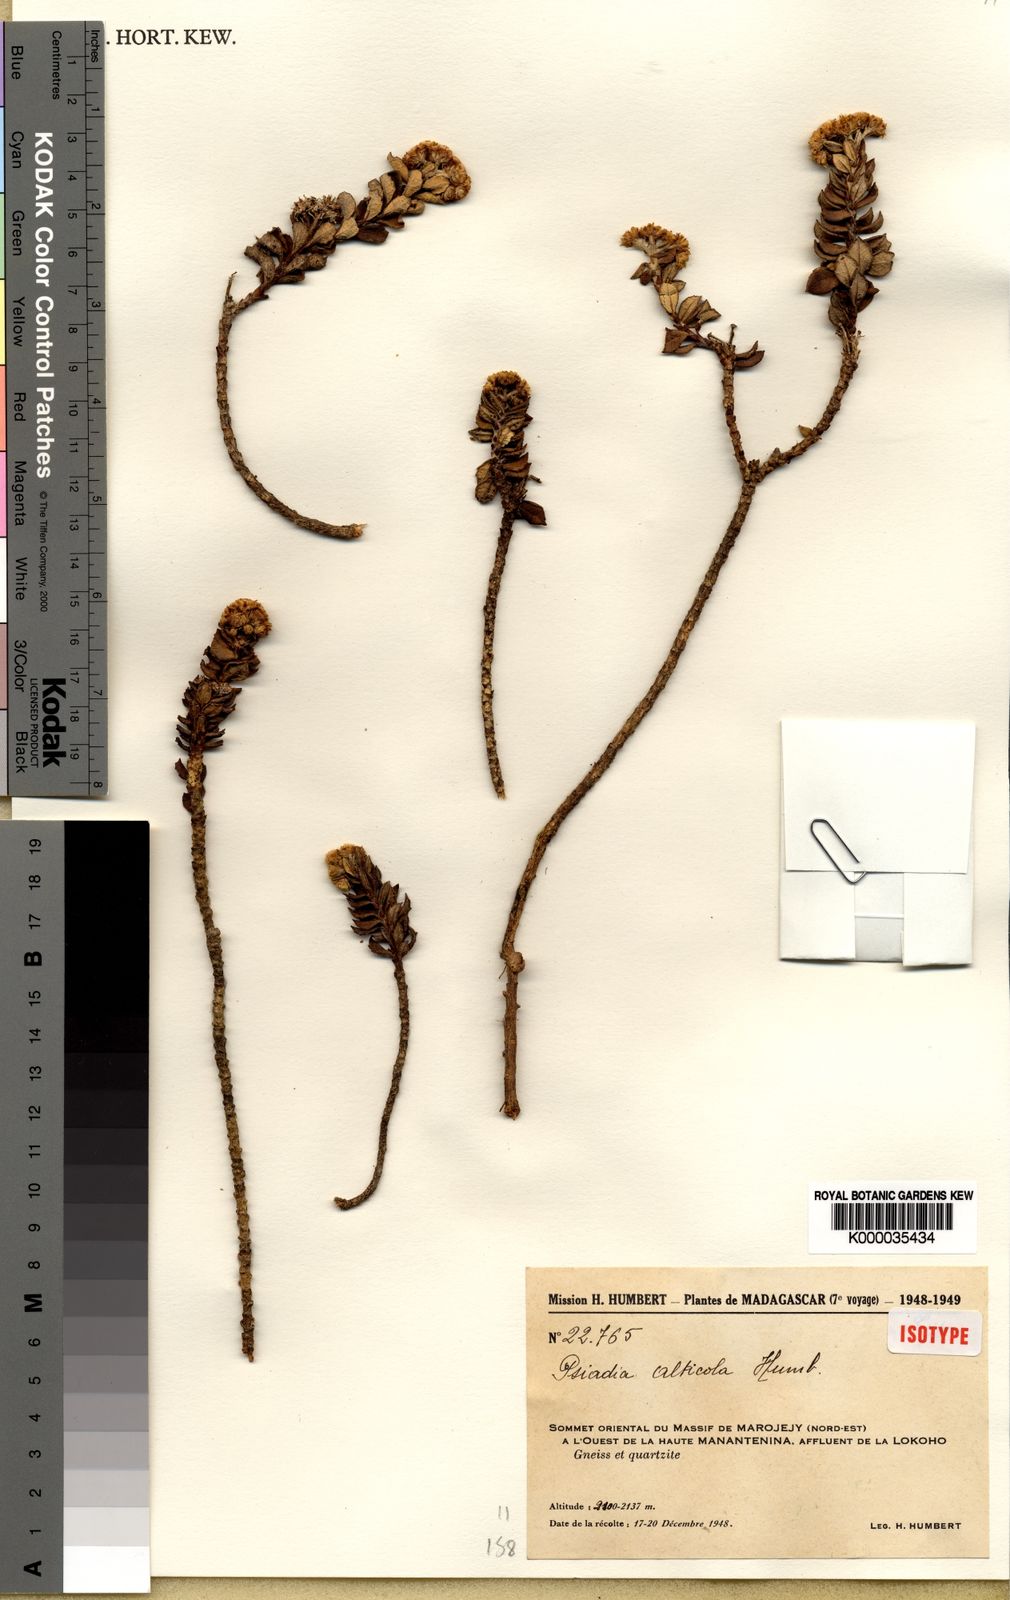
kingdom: Plantae
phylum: Tracheophyta
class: Magnoliopsida
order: Asterales
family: Asteraceae
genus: Psiadia
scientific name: Psiadia alticola
